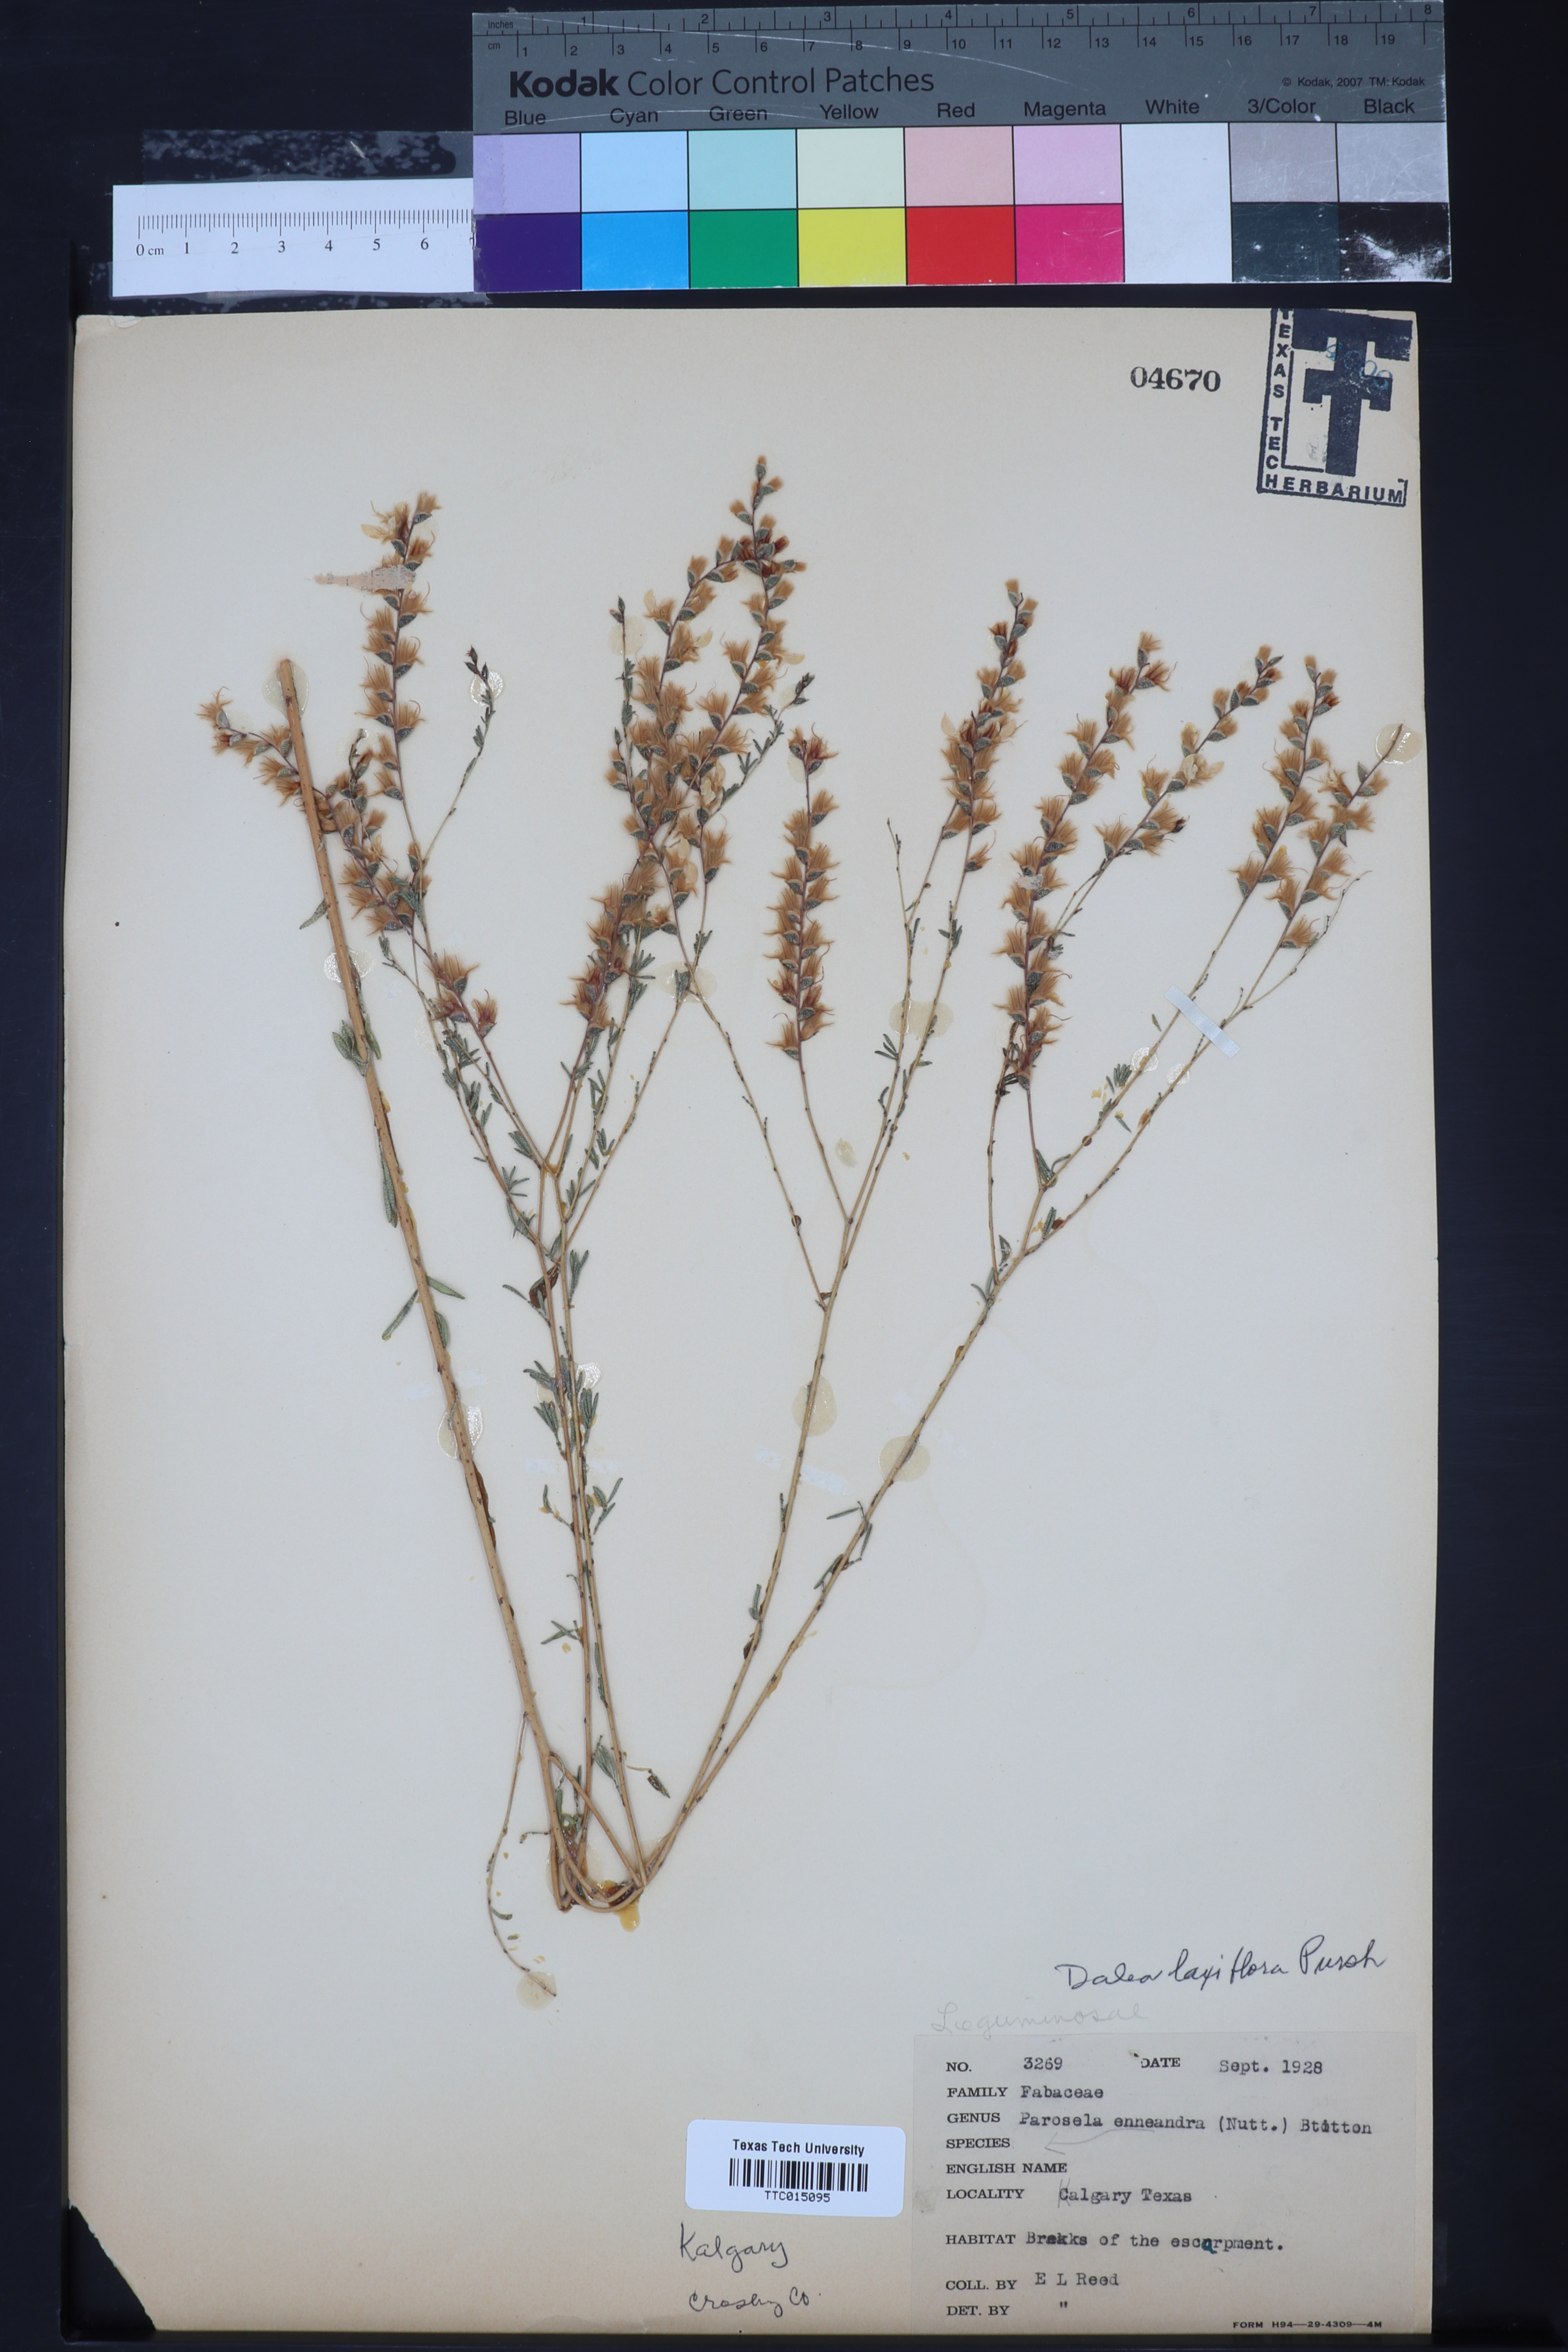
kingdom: Plantae
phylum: Tracheophyta
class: Magnoliopsida
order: Fabales
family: Fabaceae
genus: Dalea
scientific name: Dalea hegewischiana
